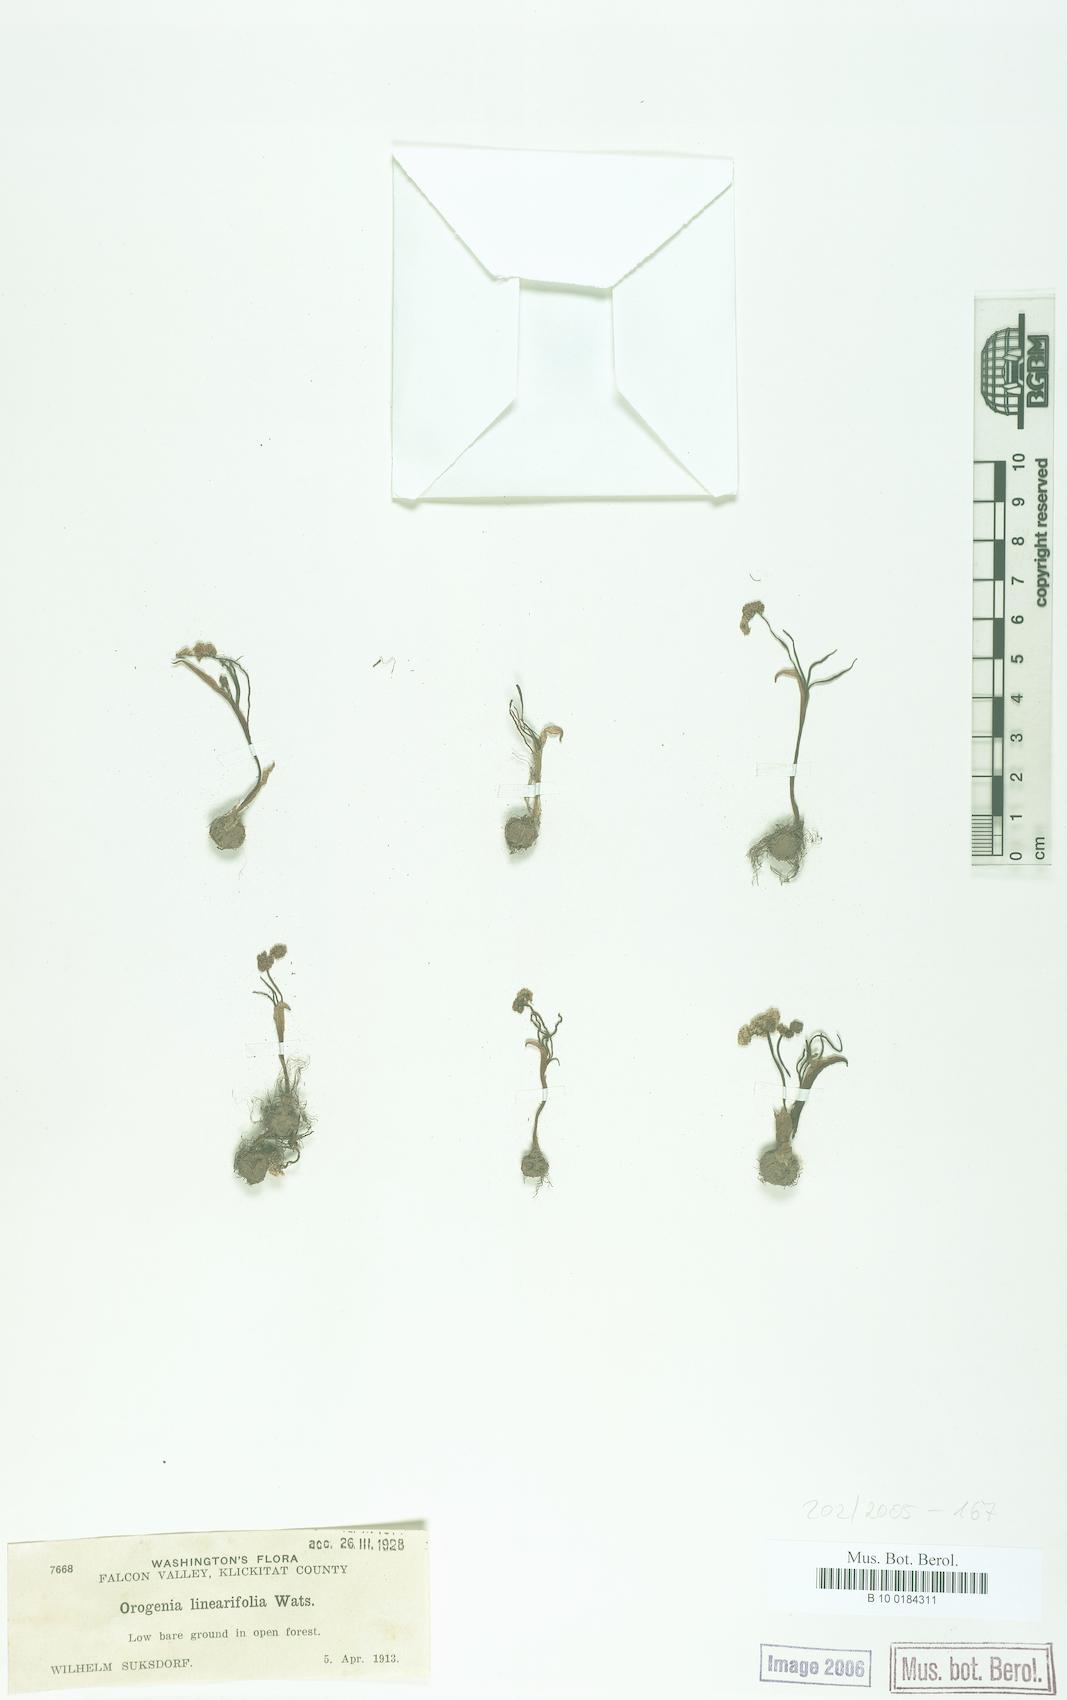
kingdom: Plantae
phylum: Tracheophyta
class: Magnoliopsida
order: Apiales
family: Apiaceae
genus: Lomatium
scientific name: Lomatium linearifolium
